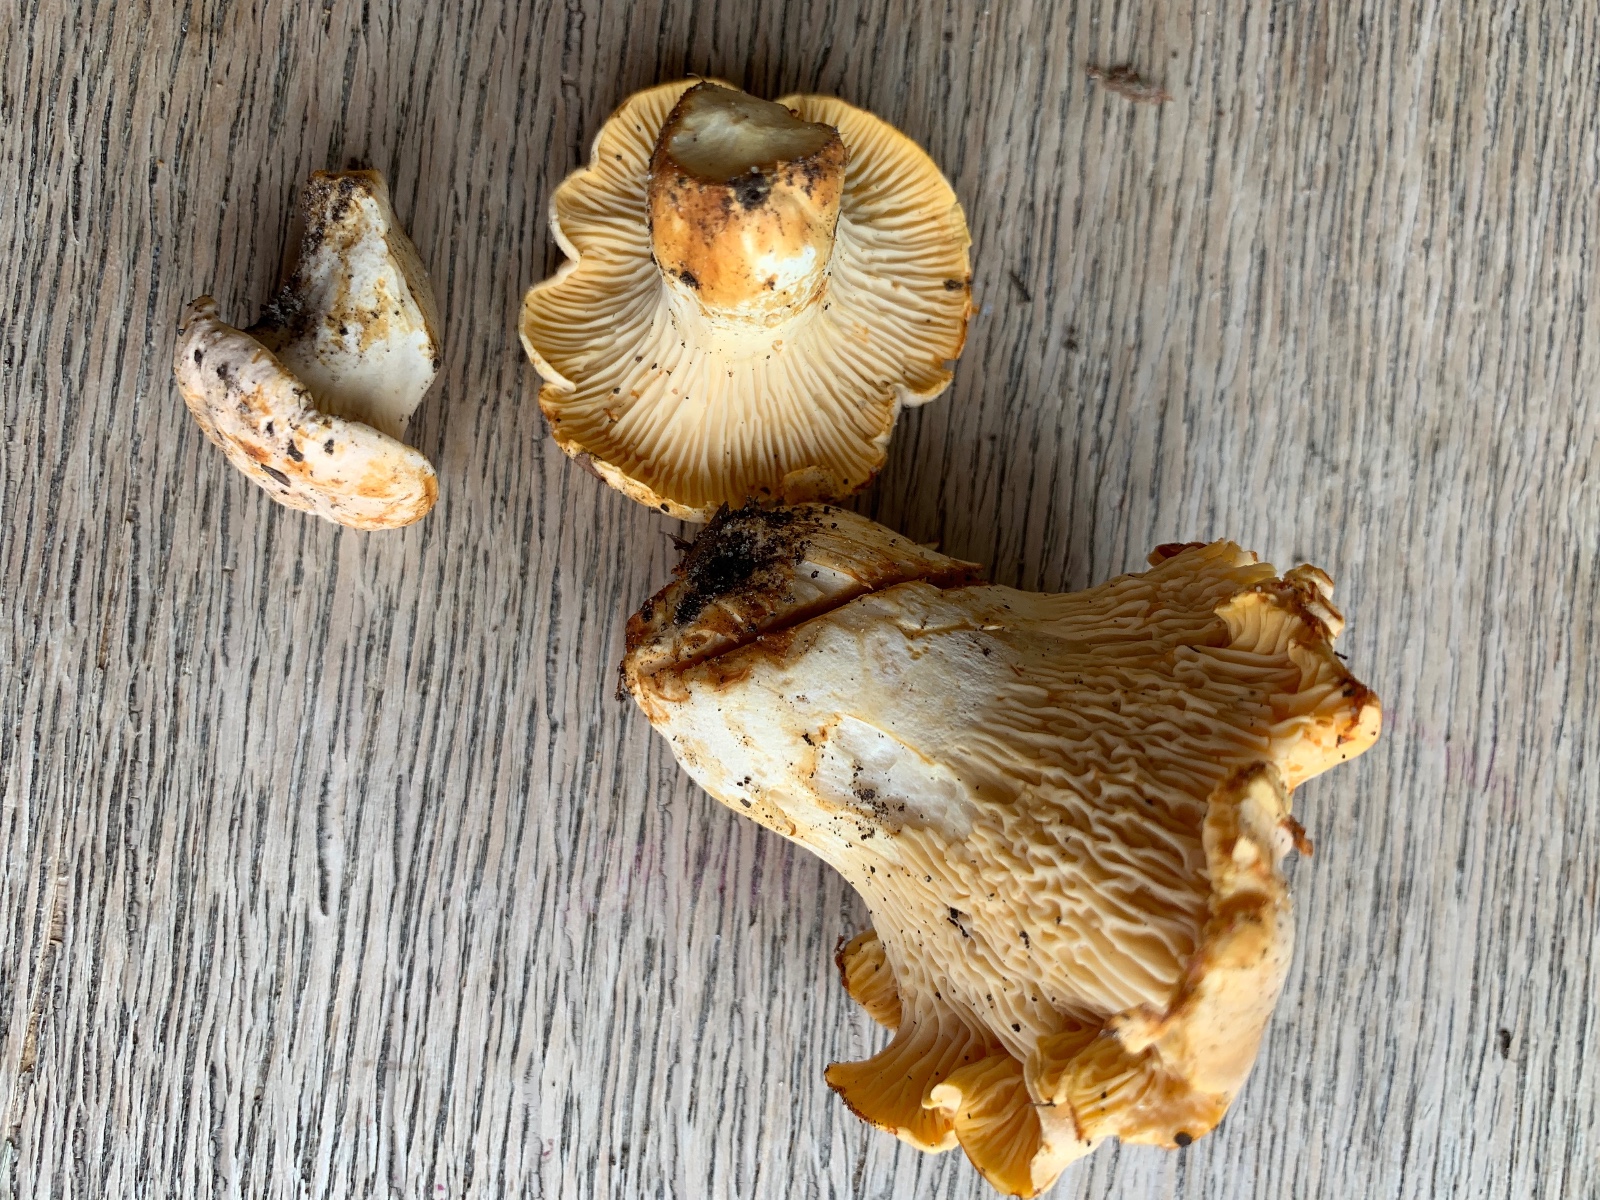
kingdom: Fungi
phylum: Basidiomycota
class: Agaricomycetes
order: Cantharellales
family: Hydnaceae
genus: Cantharellus
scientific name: Cantharellus pallens
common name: bleg kantarel
